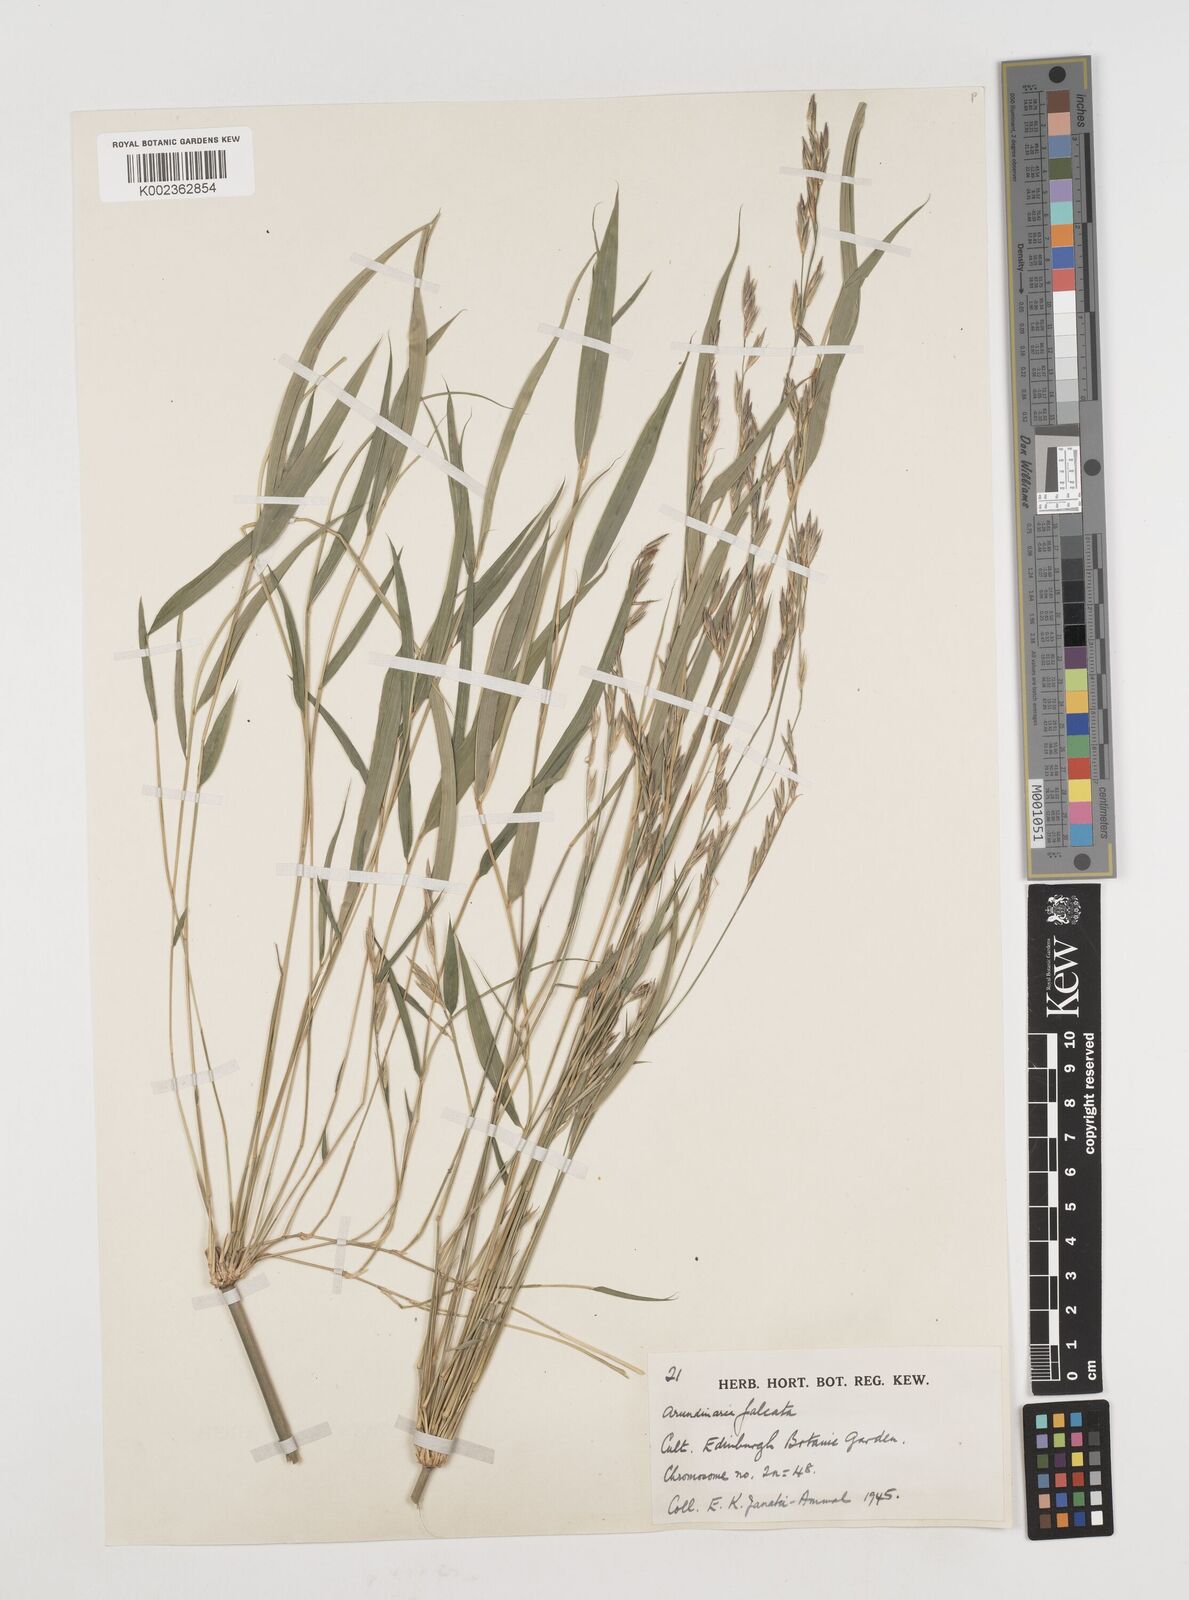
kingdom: Plantae
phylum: Tracheophyta
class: Liliopsida
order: Poales
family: Poaceae
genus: Drepanostachyum
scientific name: Drepanostachyum falcatum
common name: Himalayan bamboo
